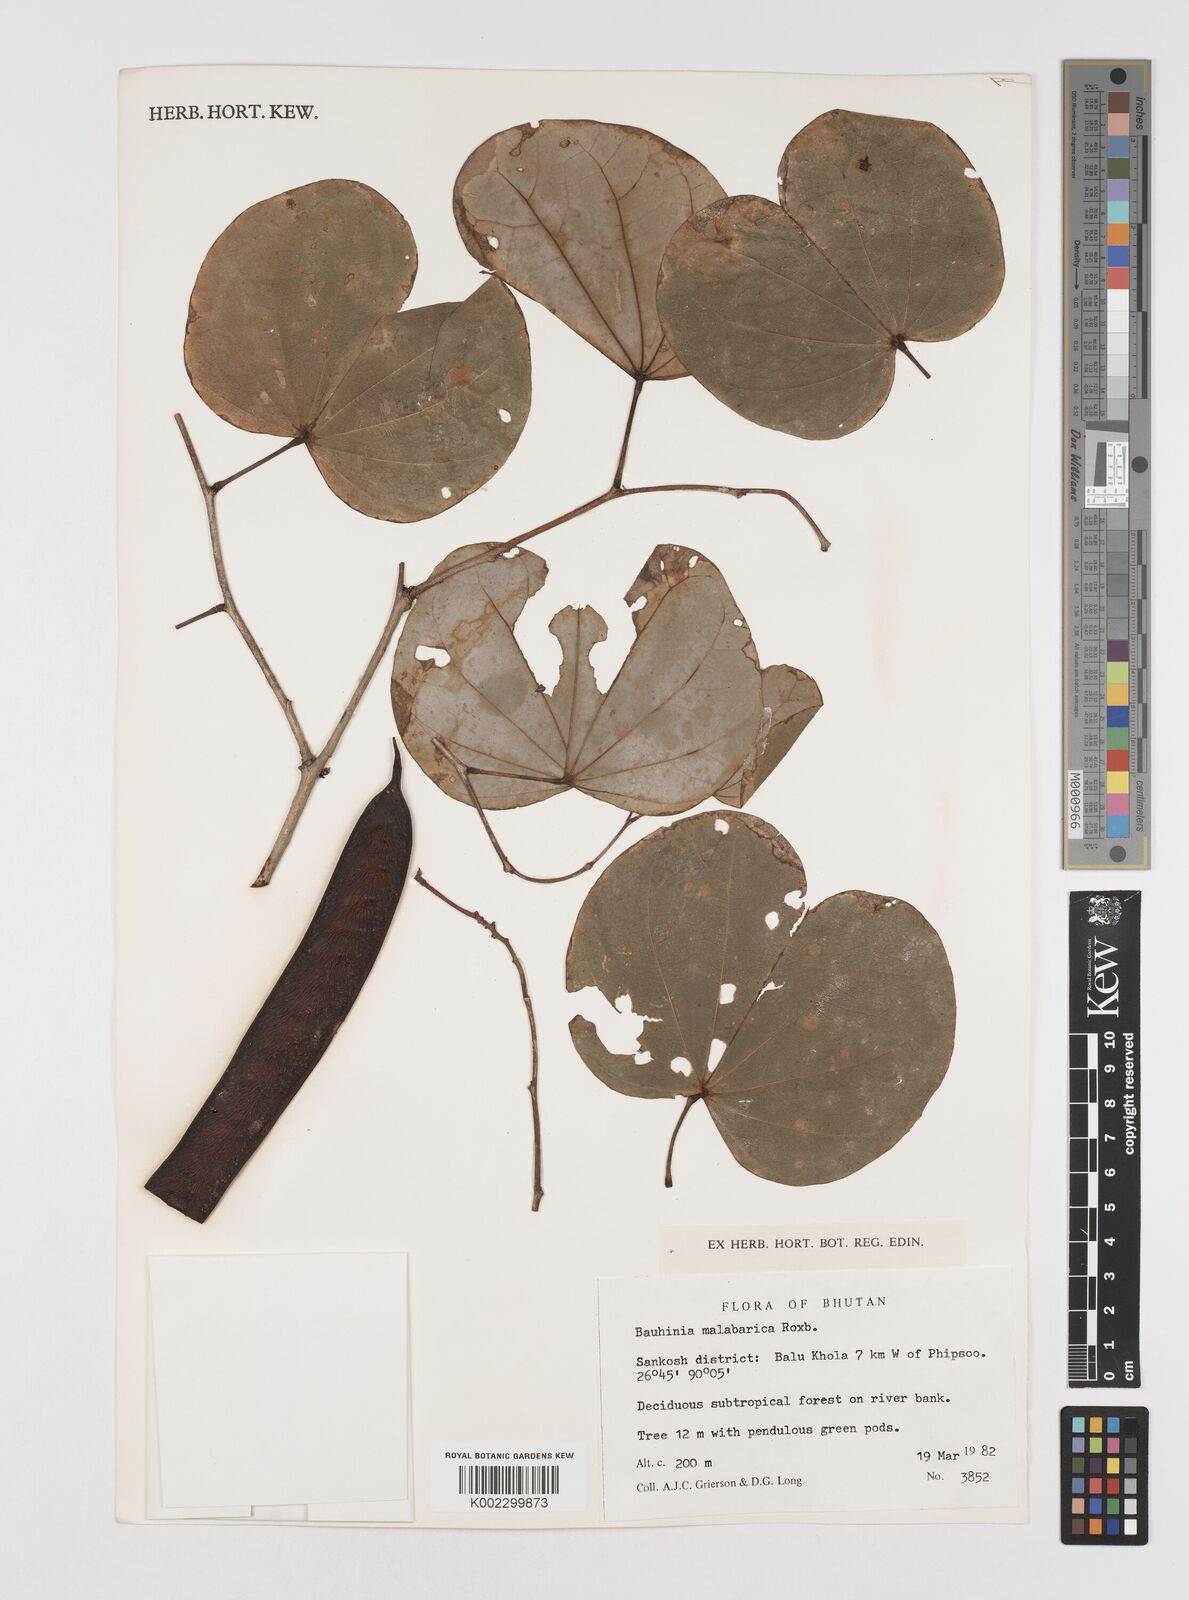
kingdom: Plantae
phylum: Tracheophyta
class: Magnoliopsida
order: Fabales
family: Fabaceae
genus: Piliostigma
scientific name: Piliostigma malabaricum
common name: Malabar bauhinia
